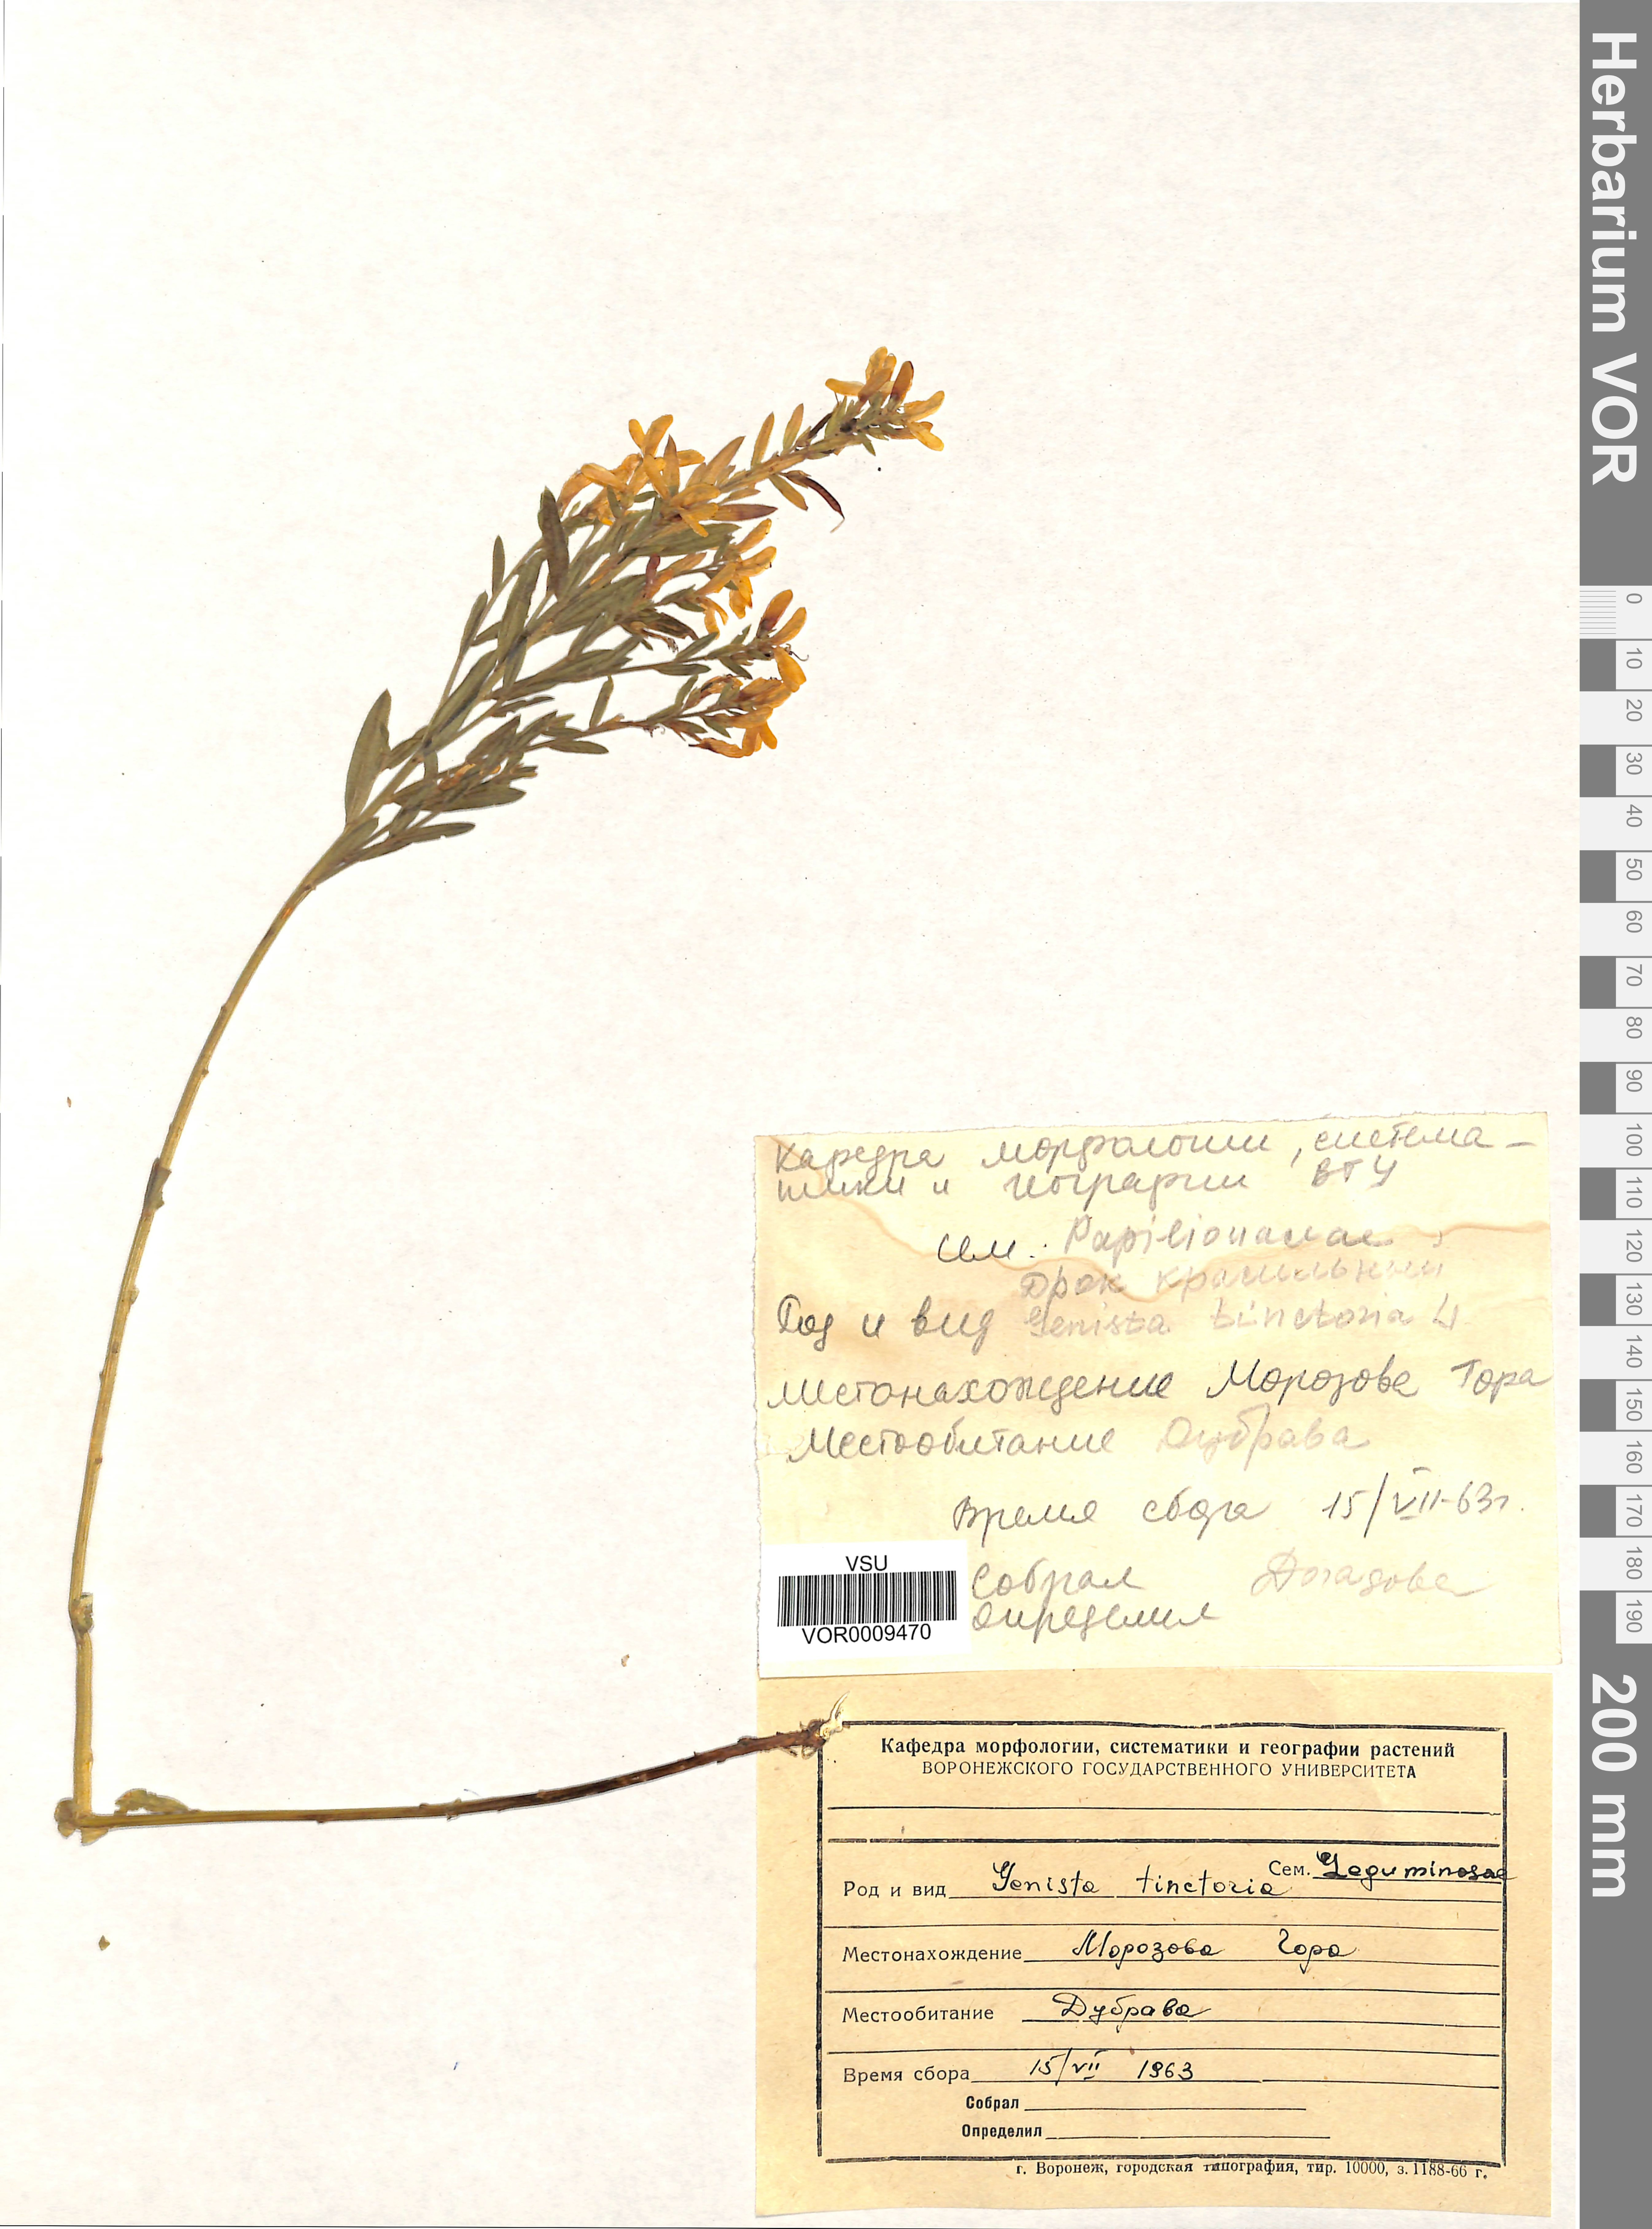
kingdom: Plantae
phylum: Tracheophyta
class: Magnoliopsida
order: Fabales
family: Fabaceae
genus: Genista
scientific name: Genista tinctoria
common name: Dyer's greenweed
